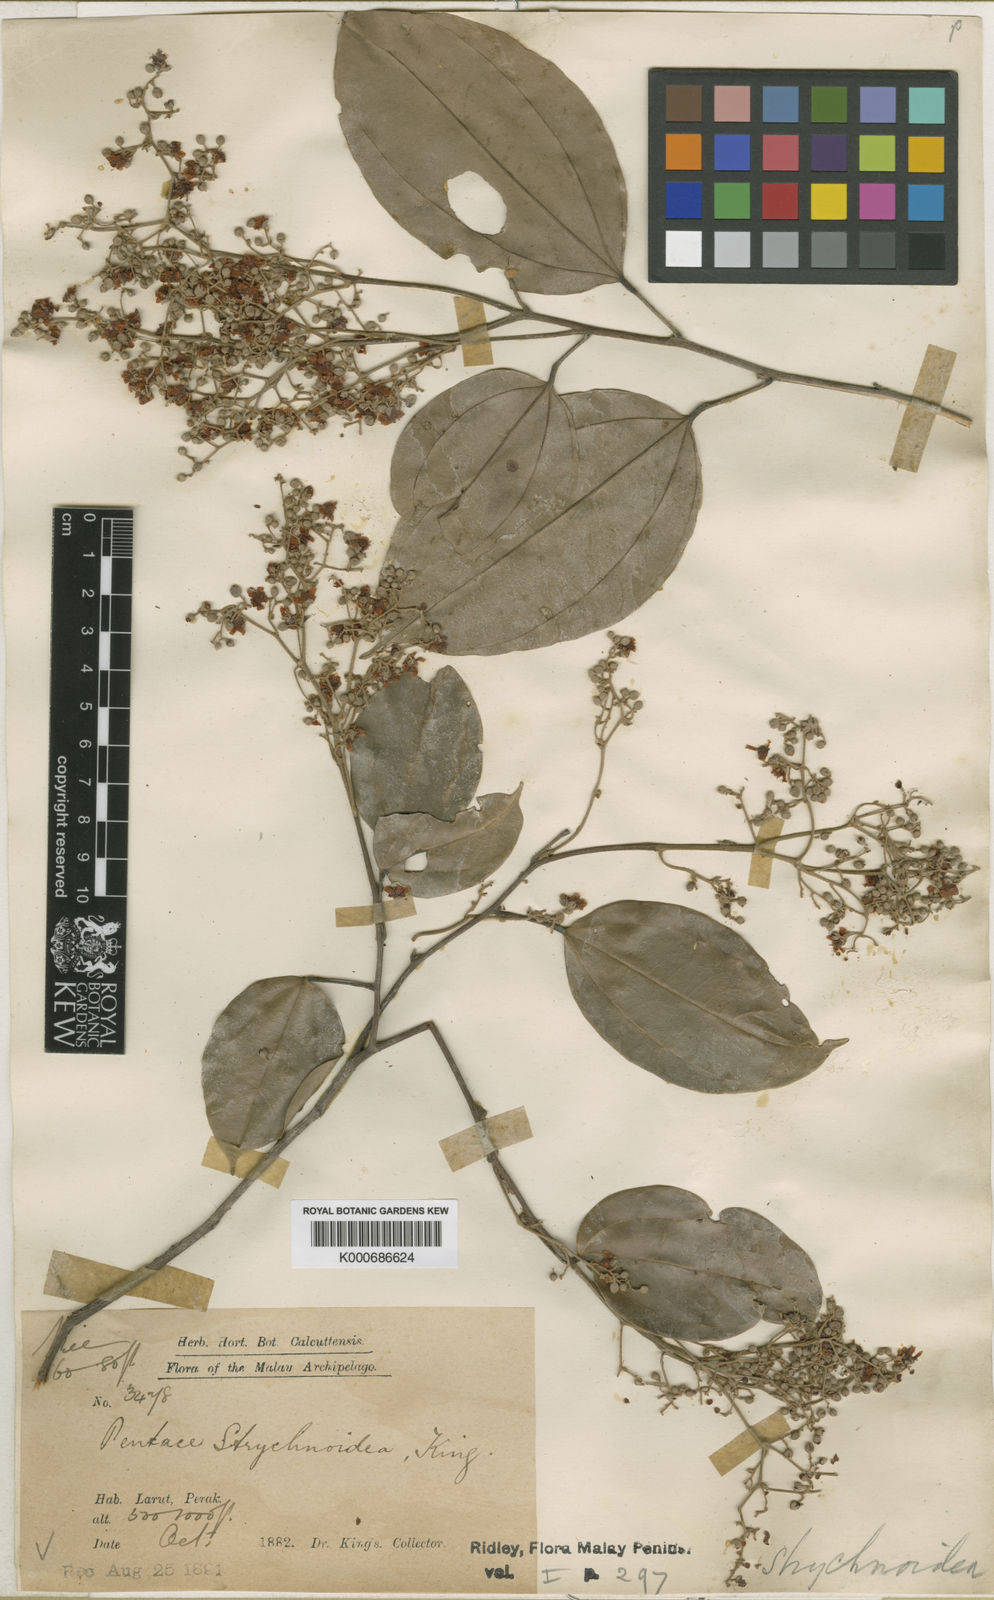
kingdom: Plantae
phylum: Tracheophyta
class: Magnoliopsida
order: Malvales
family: Malvaceae
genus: Pentace
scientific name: Pentace strychnoidea
